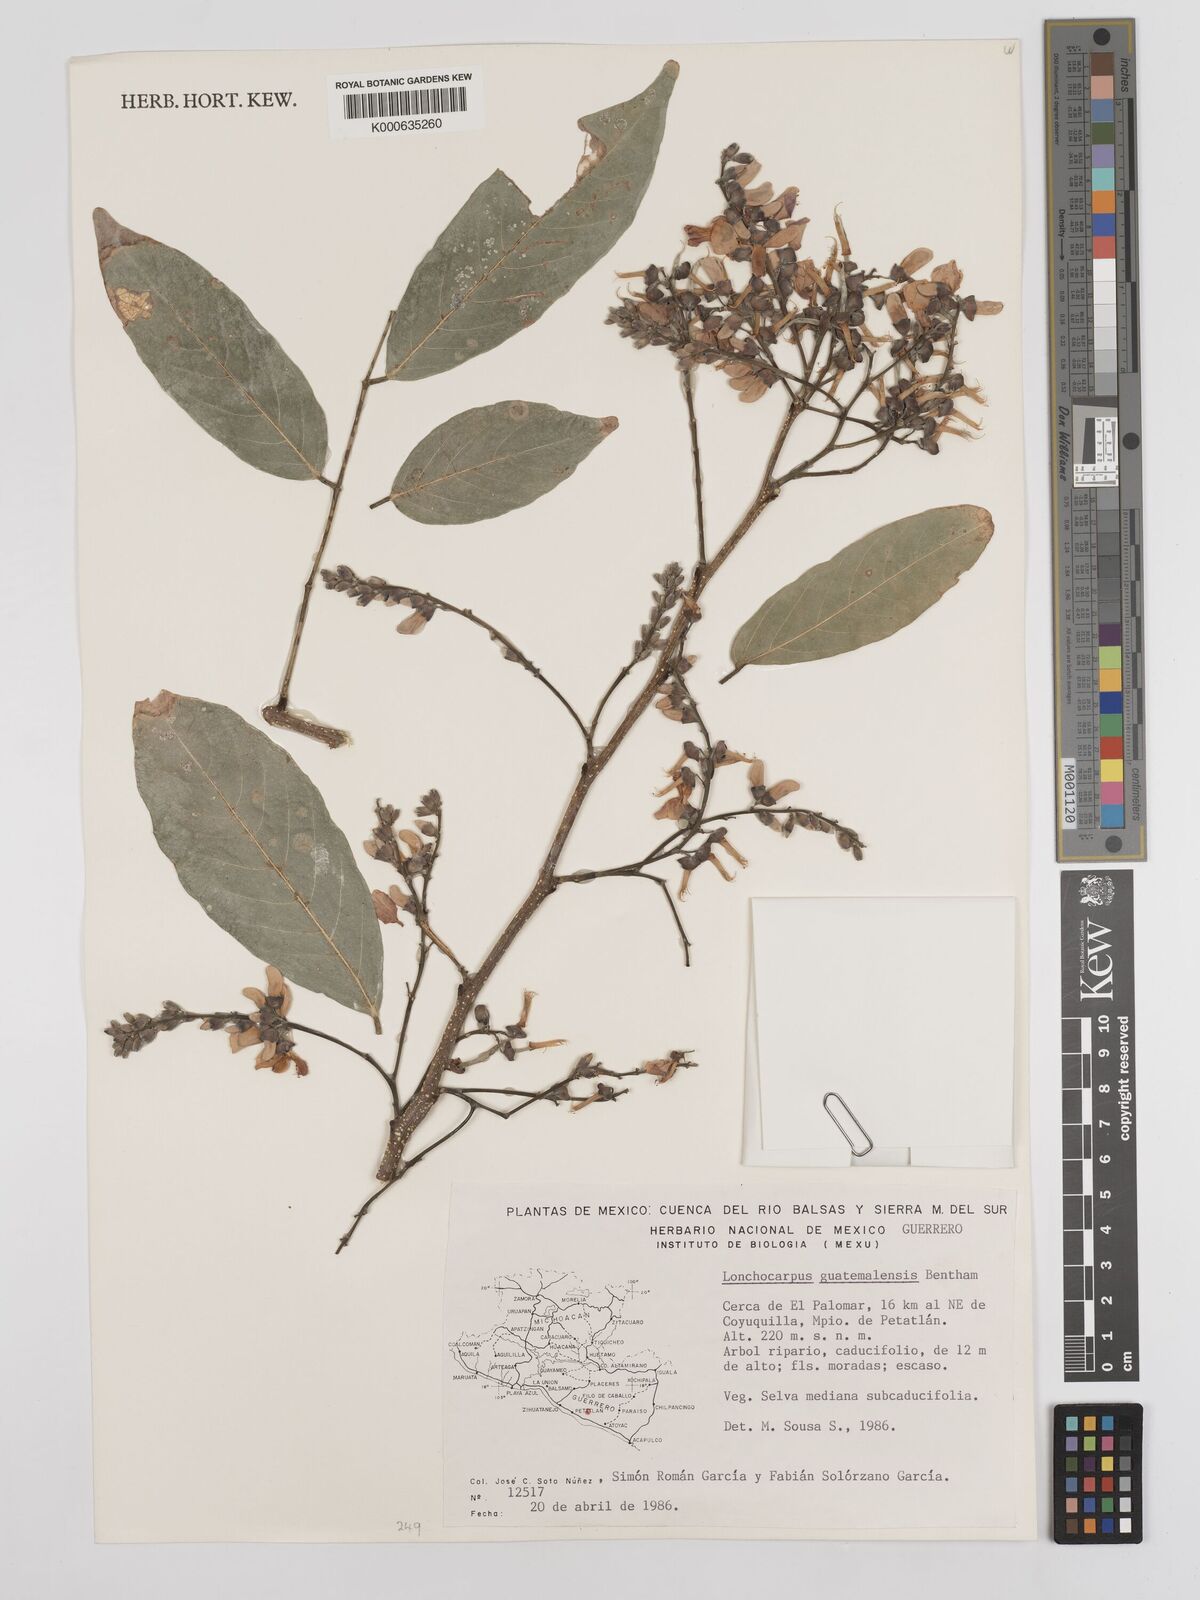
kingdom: Plantae
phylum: Tracheophyta
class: Magnoliopsida
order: Fabales
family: Fabaceae
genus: Lonchocarpus
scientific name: Lonchocarpus guatemalensis
